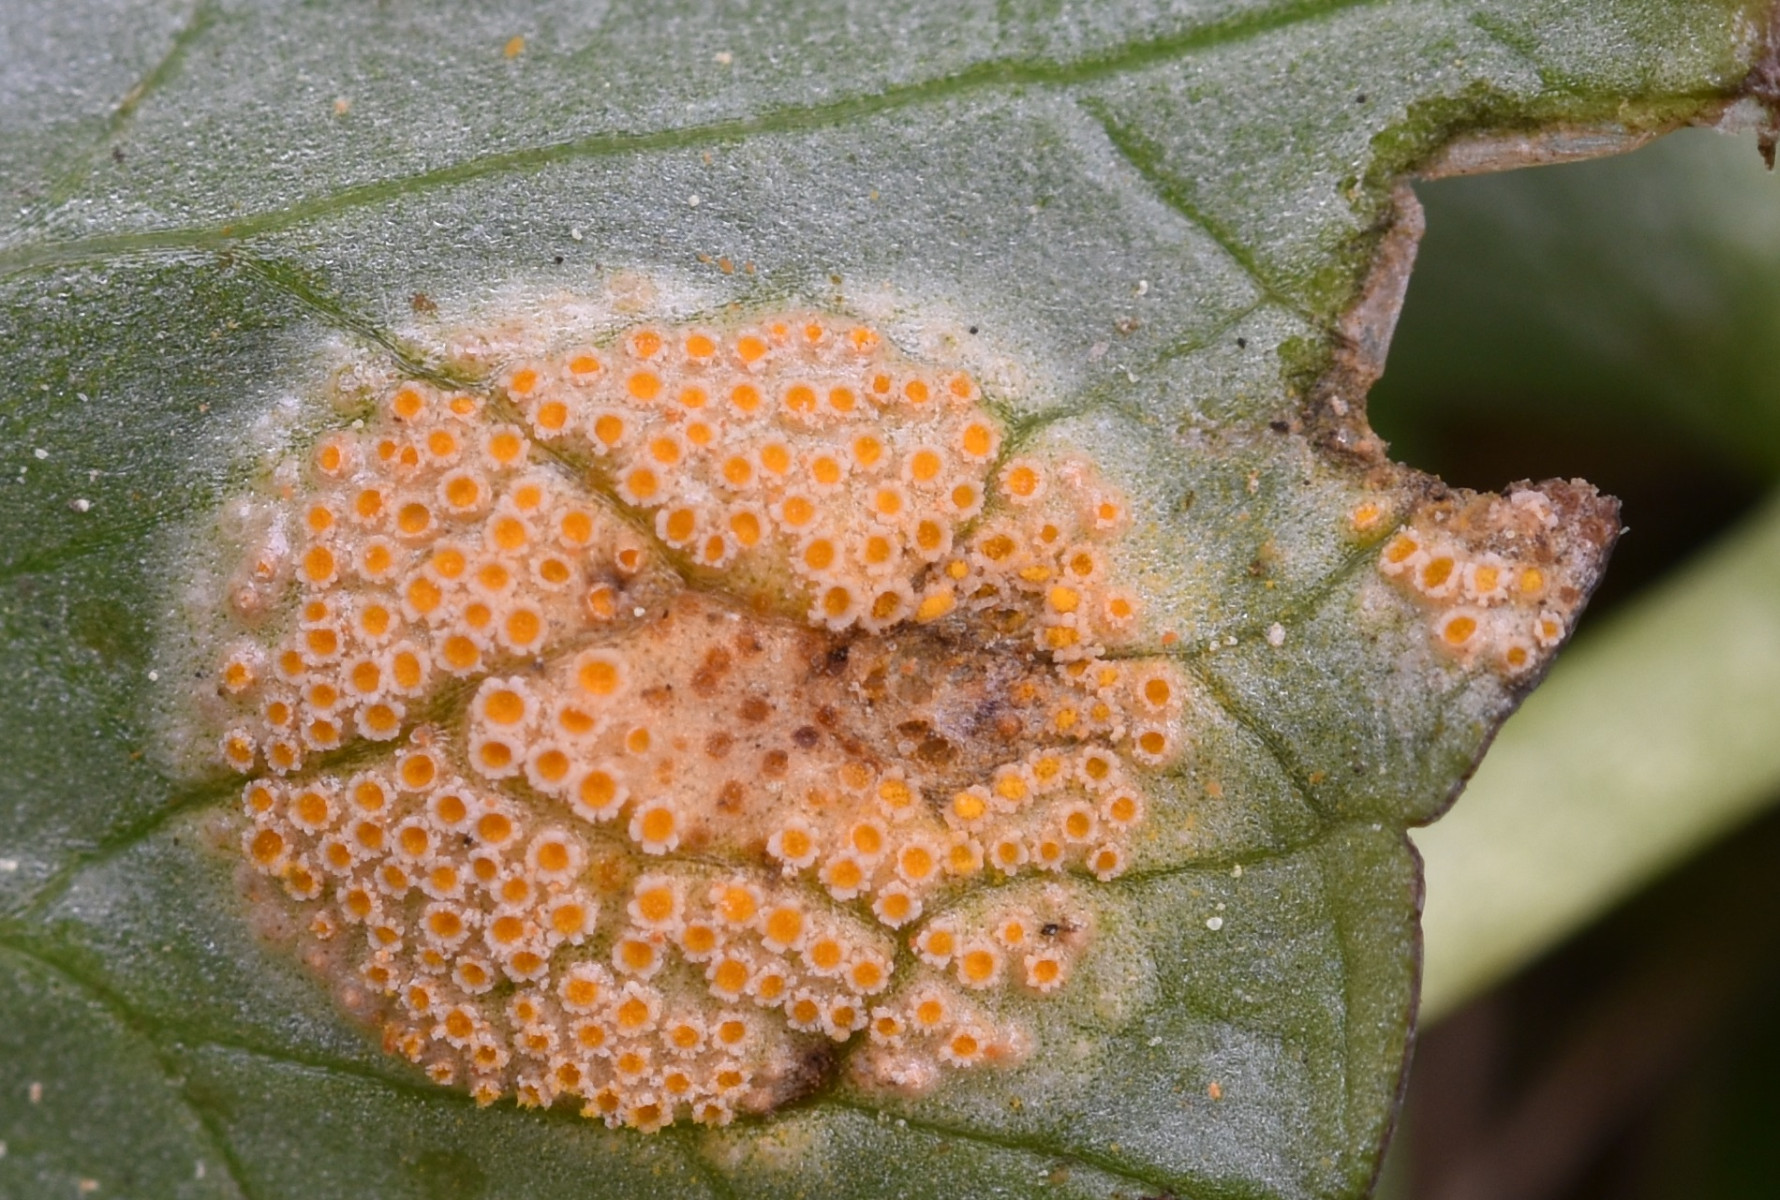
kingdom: Fungi
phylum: Basidiomycota
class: Pucciniomycetes
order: Pucciniales
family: Pucciniaceae
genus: Uromyces
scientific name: Uromyces dactylidis
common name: ranunkel-encellerust
